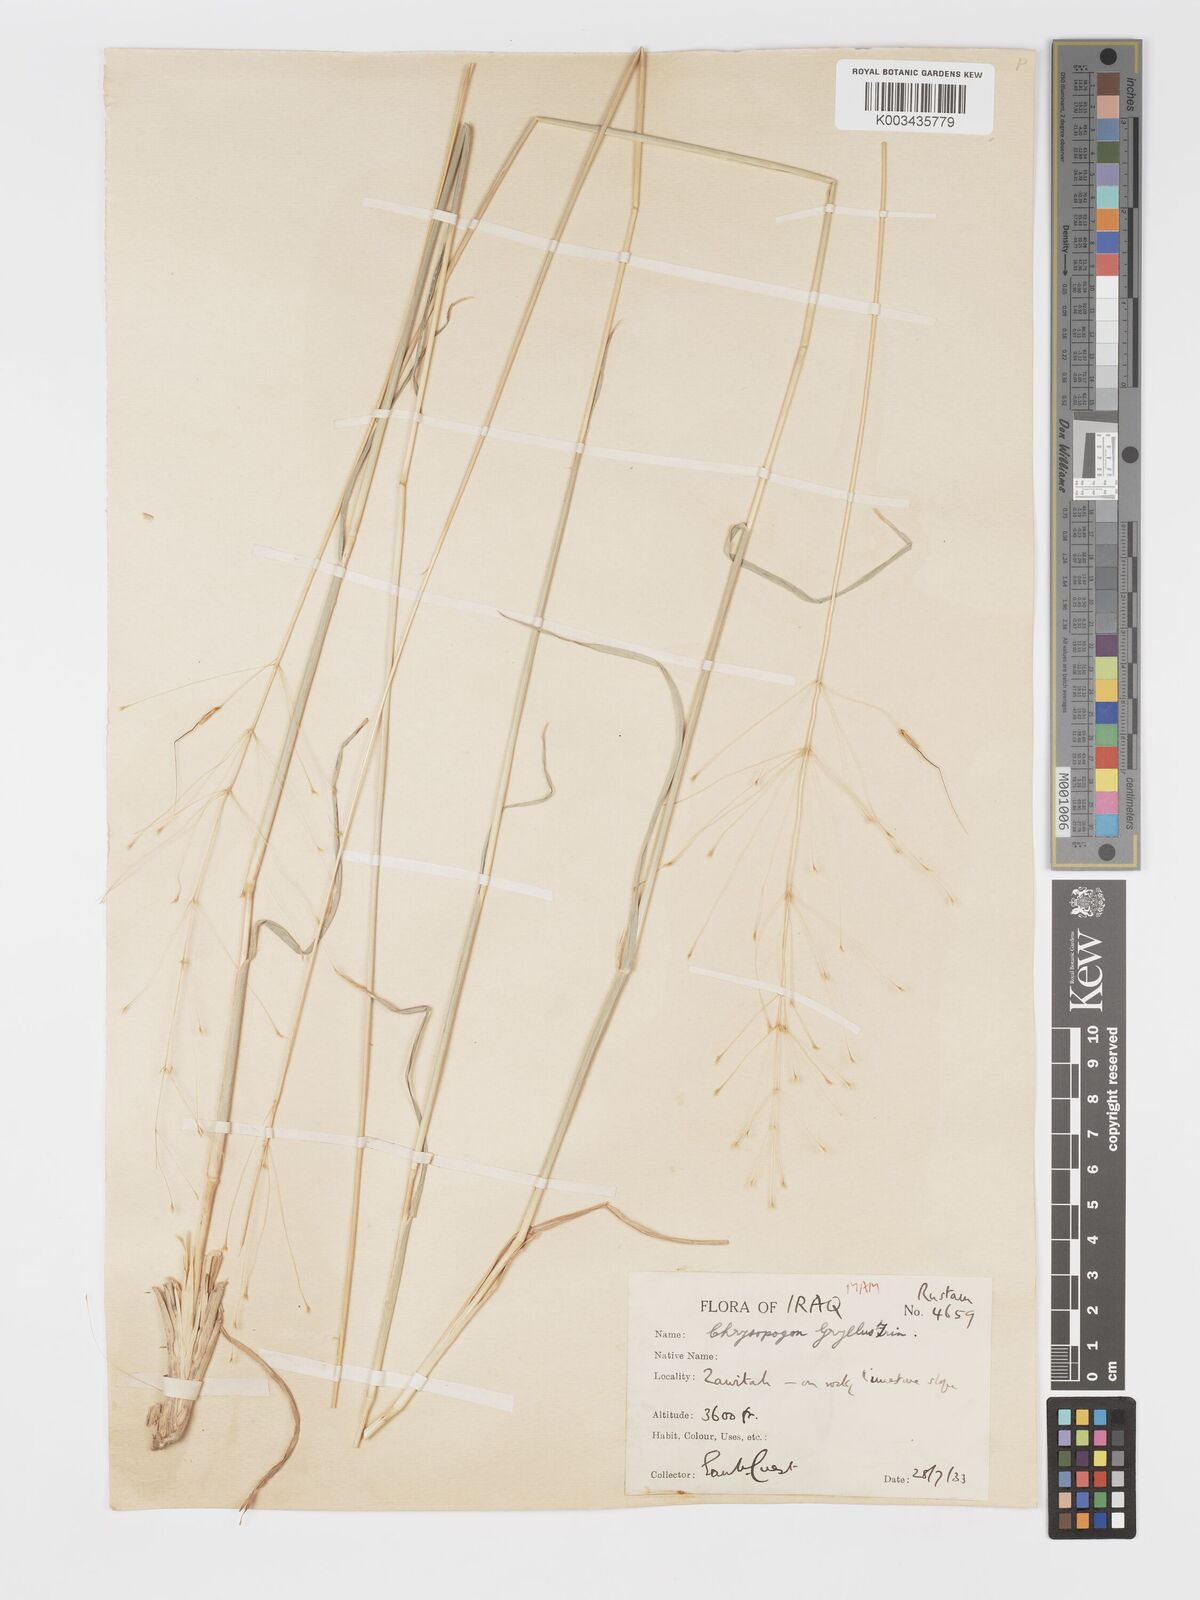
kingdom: Plantae
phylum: Tracheophyta
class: Liliopsida
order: Poales
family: Poaceae
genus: Chrysopogon
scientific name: Chrysopogon gryllus
